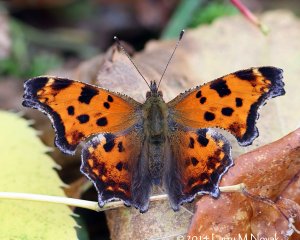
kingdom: Animalia
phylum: Arthropoda
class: Insecta
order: Lepidoptera
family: Nymphalidae
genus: Polygonia
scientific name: Polygonia comma
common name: Eastern Comma
